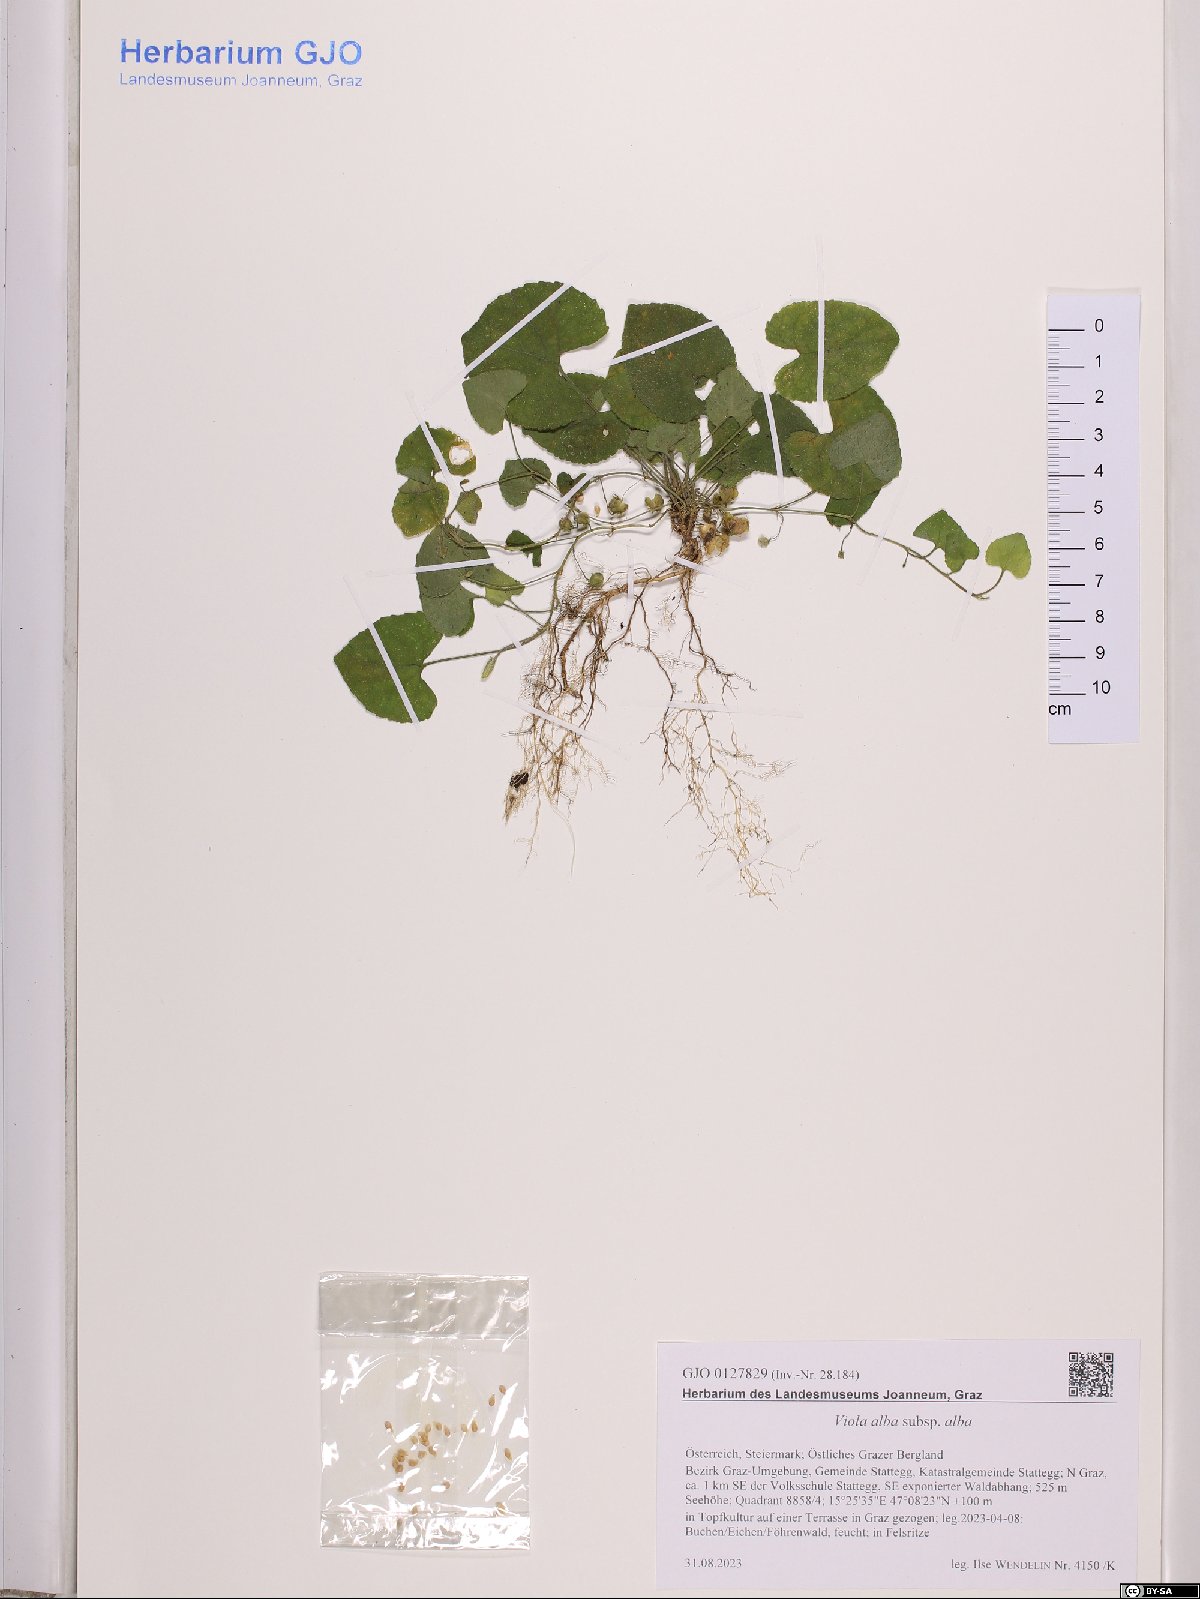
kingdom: Plantae
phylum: Tracheophyta
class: Magnoliopsida
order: Malpighiales
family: Violaceae
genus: Viola
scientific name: Viola alba
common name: White violet
